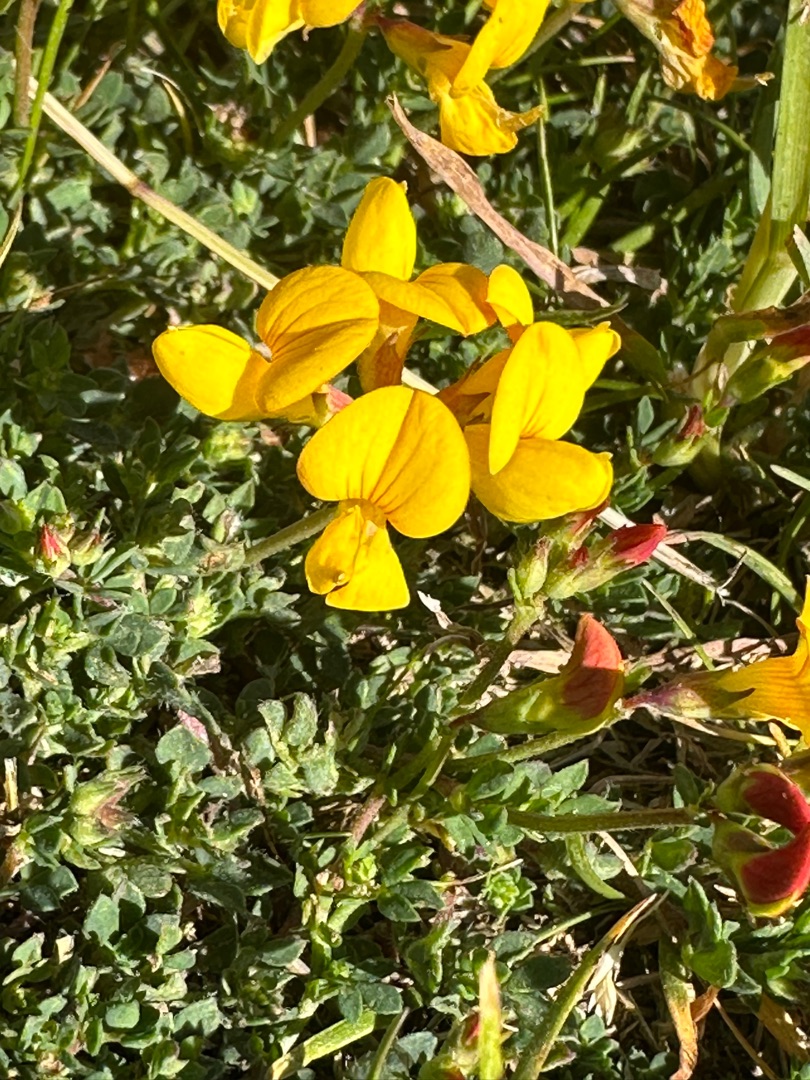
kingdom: Plantae
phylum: Tracheophyta
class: Magnoliopsida
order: Fabales
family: Fabaceae
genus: Lotus
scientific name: Lotus corniculatus
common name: Almindelig kællingetand
